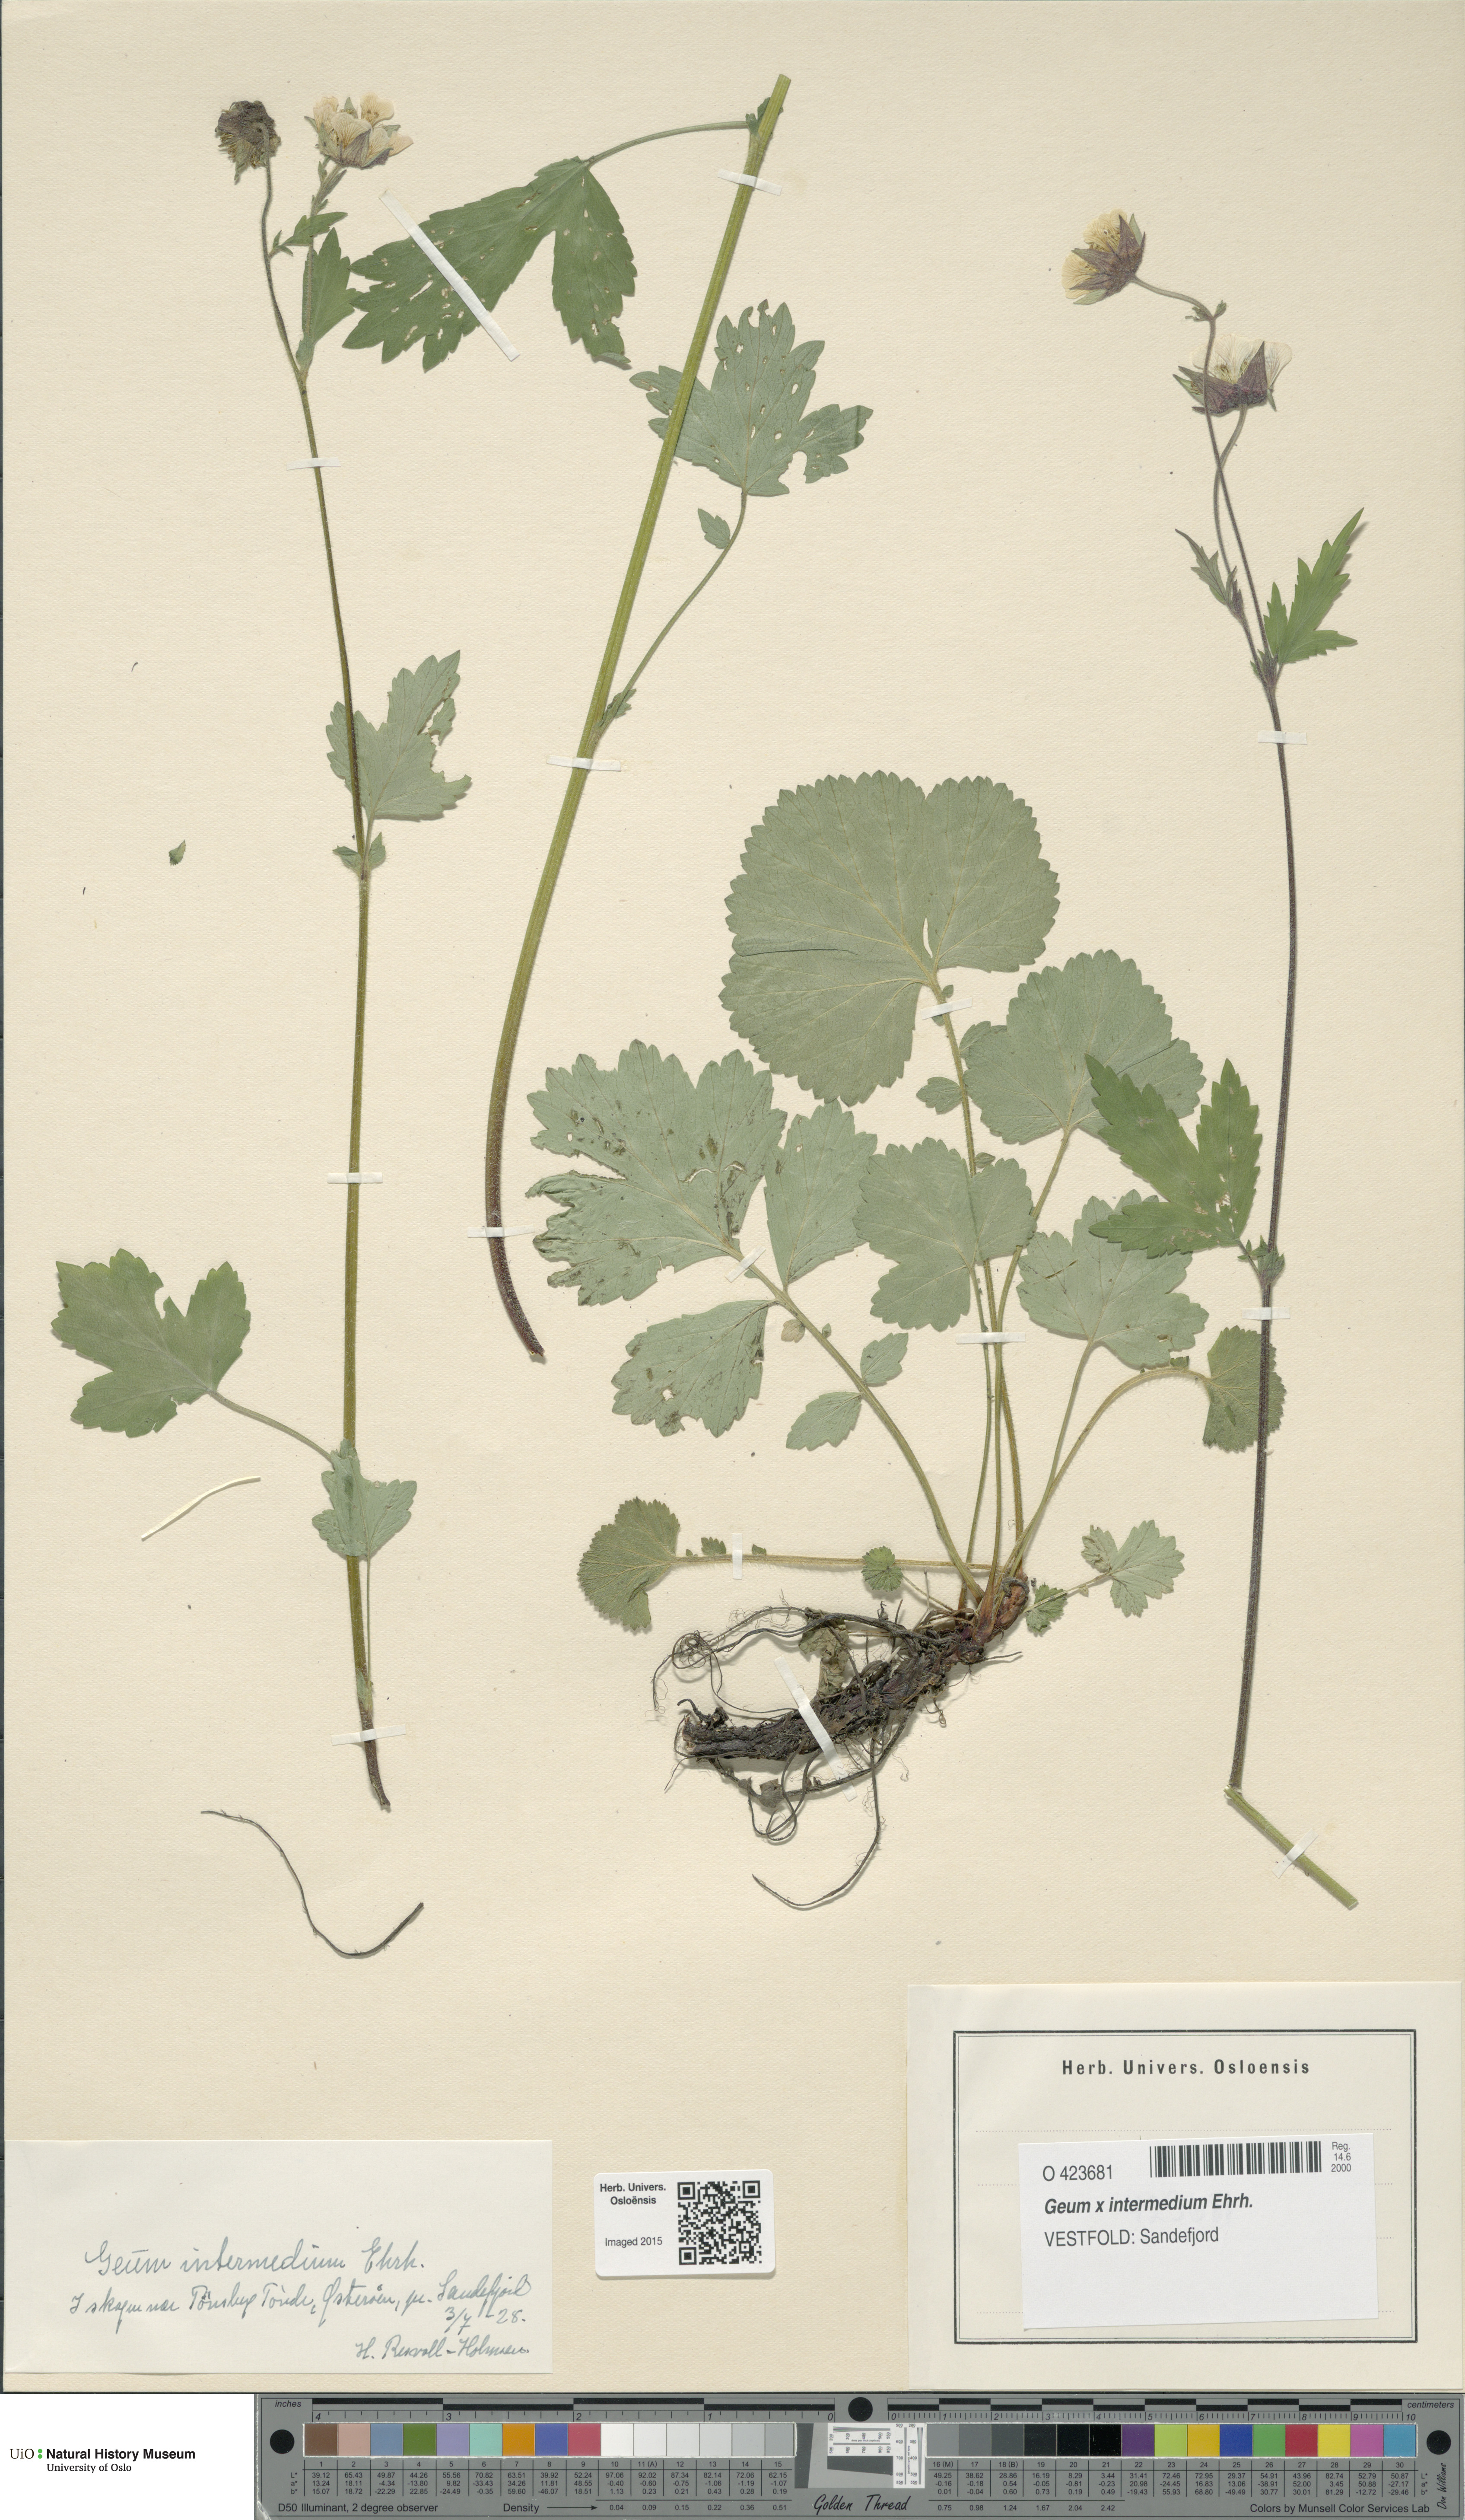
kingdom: Plantae
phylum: Tracheophyta
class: Magnoliopsida
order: Rosales
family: Rosaceae
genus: Geum
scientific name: Geum intermedium
